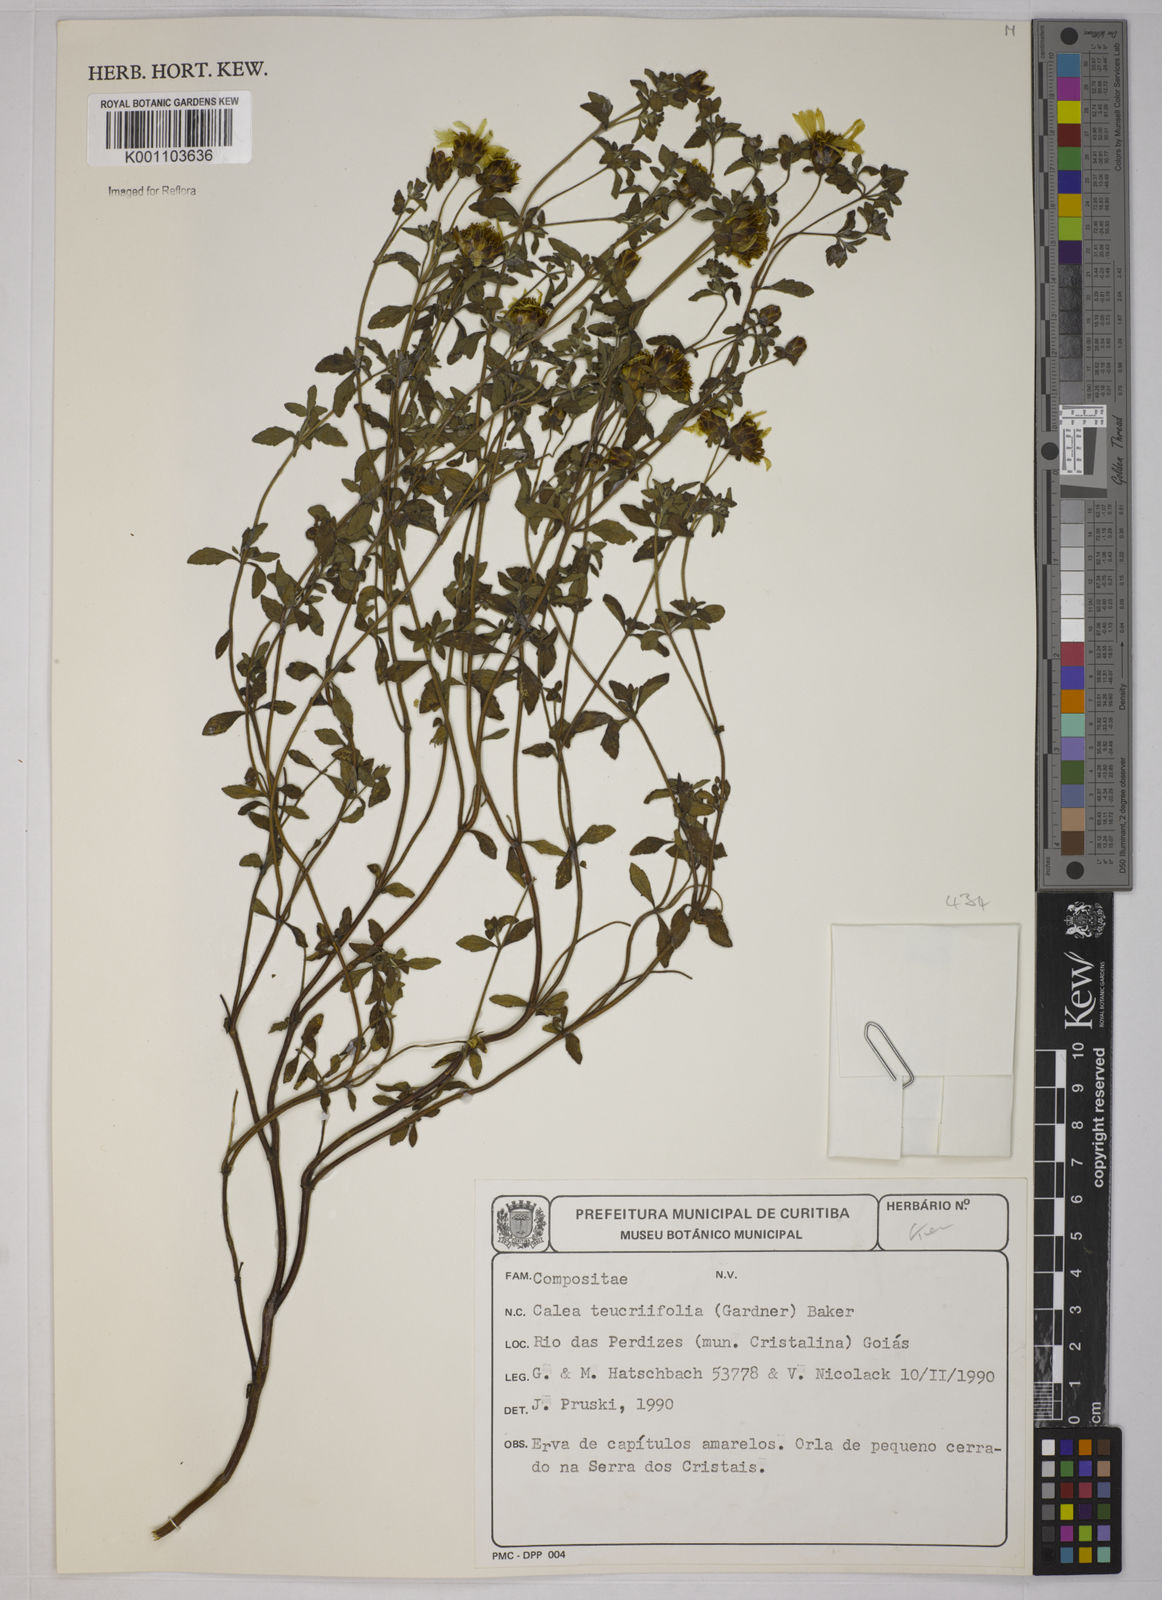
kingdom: Plantae
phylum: Tracheophyta
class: Magnoliopsida
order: Asterales
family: Asteraceae
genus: Calea
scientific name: Calea teucriifolia
